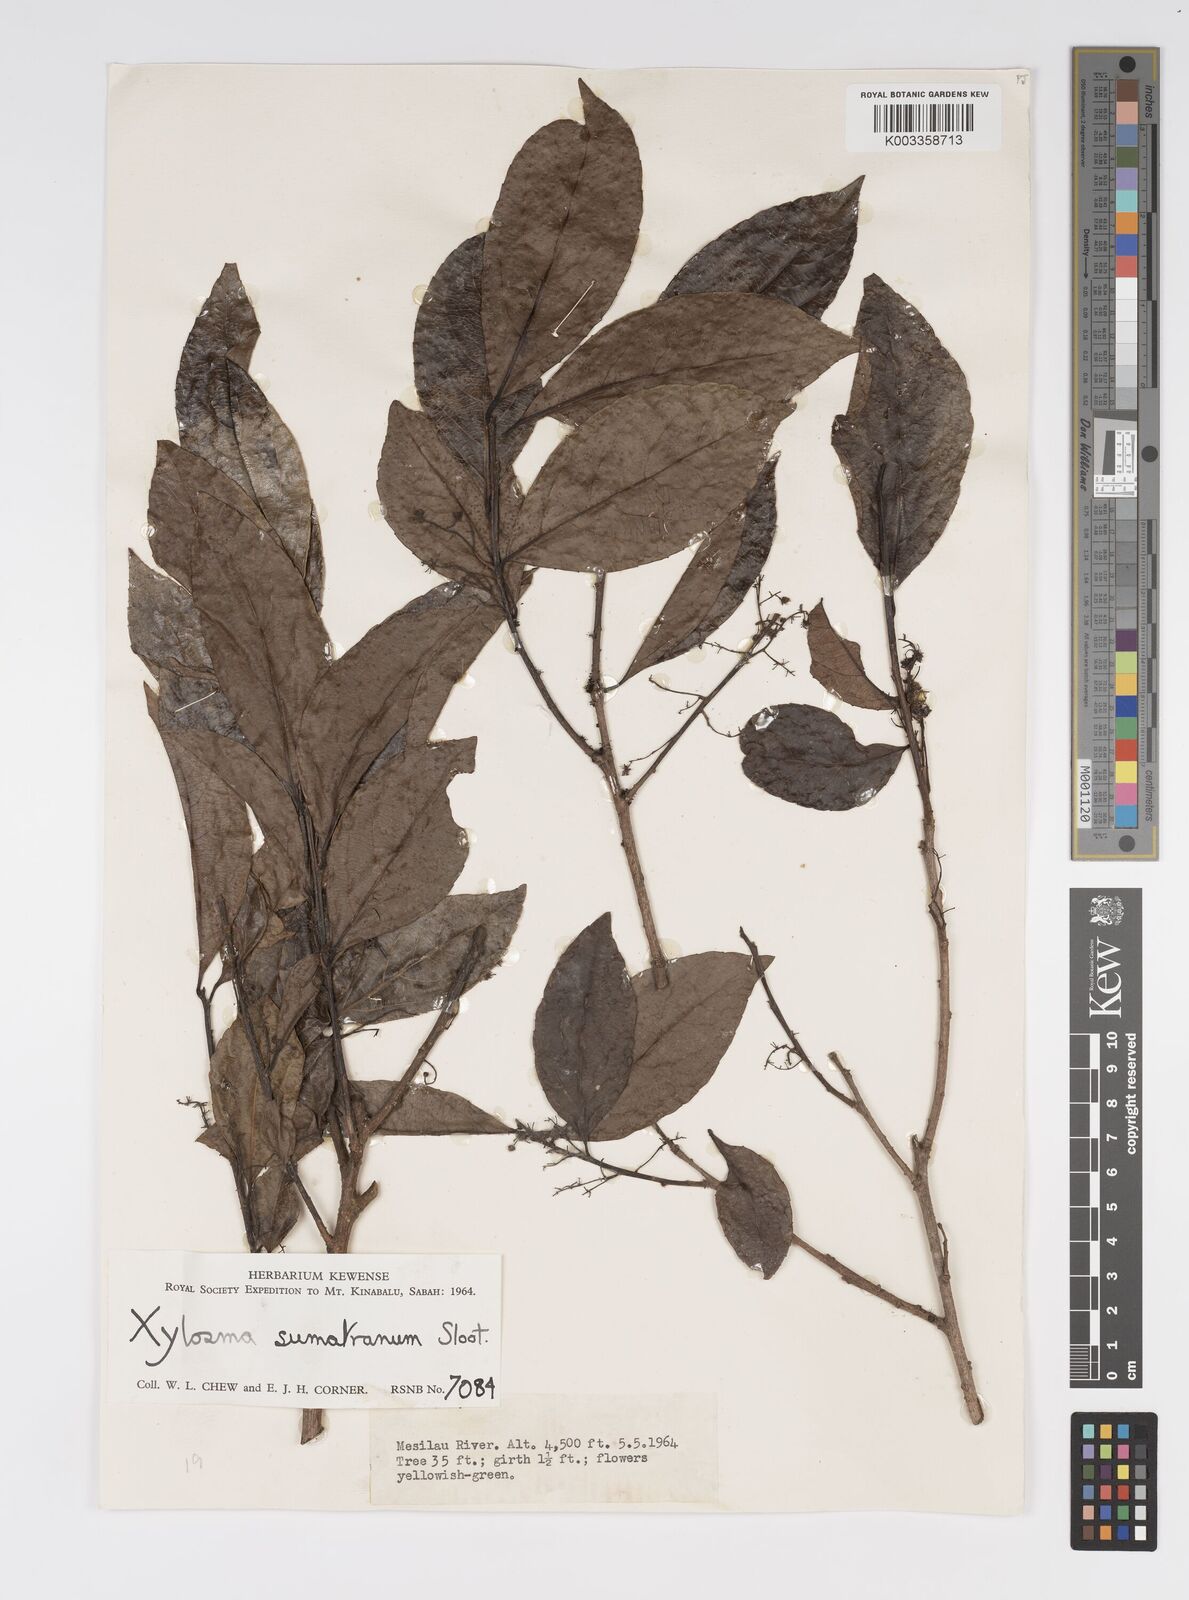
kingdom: Plantae
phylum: Tracheophyta
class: Magnoliopsida
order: Malpighiales
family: Salicaceae
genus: Xylosma
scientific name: Xylosma sumatrana
